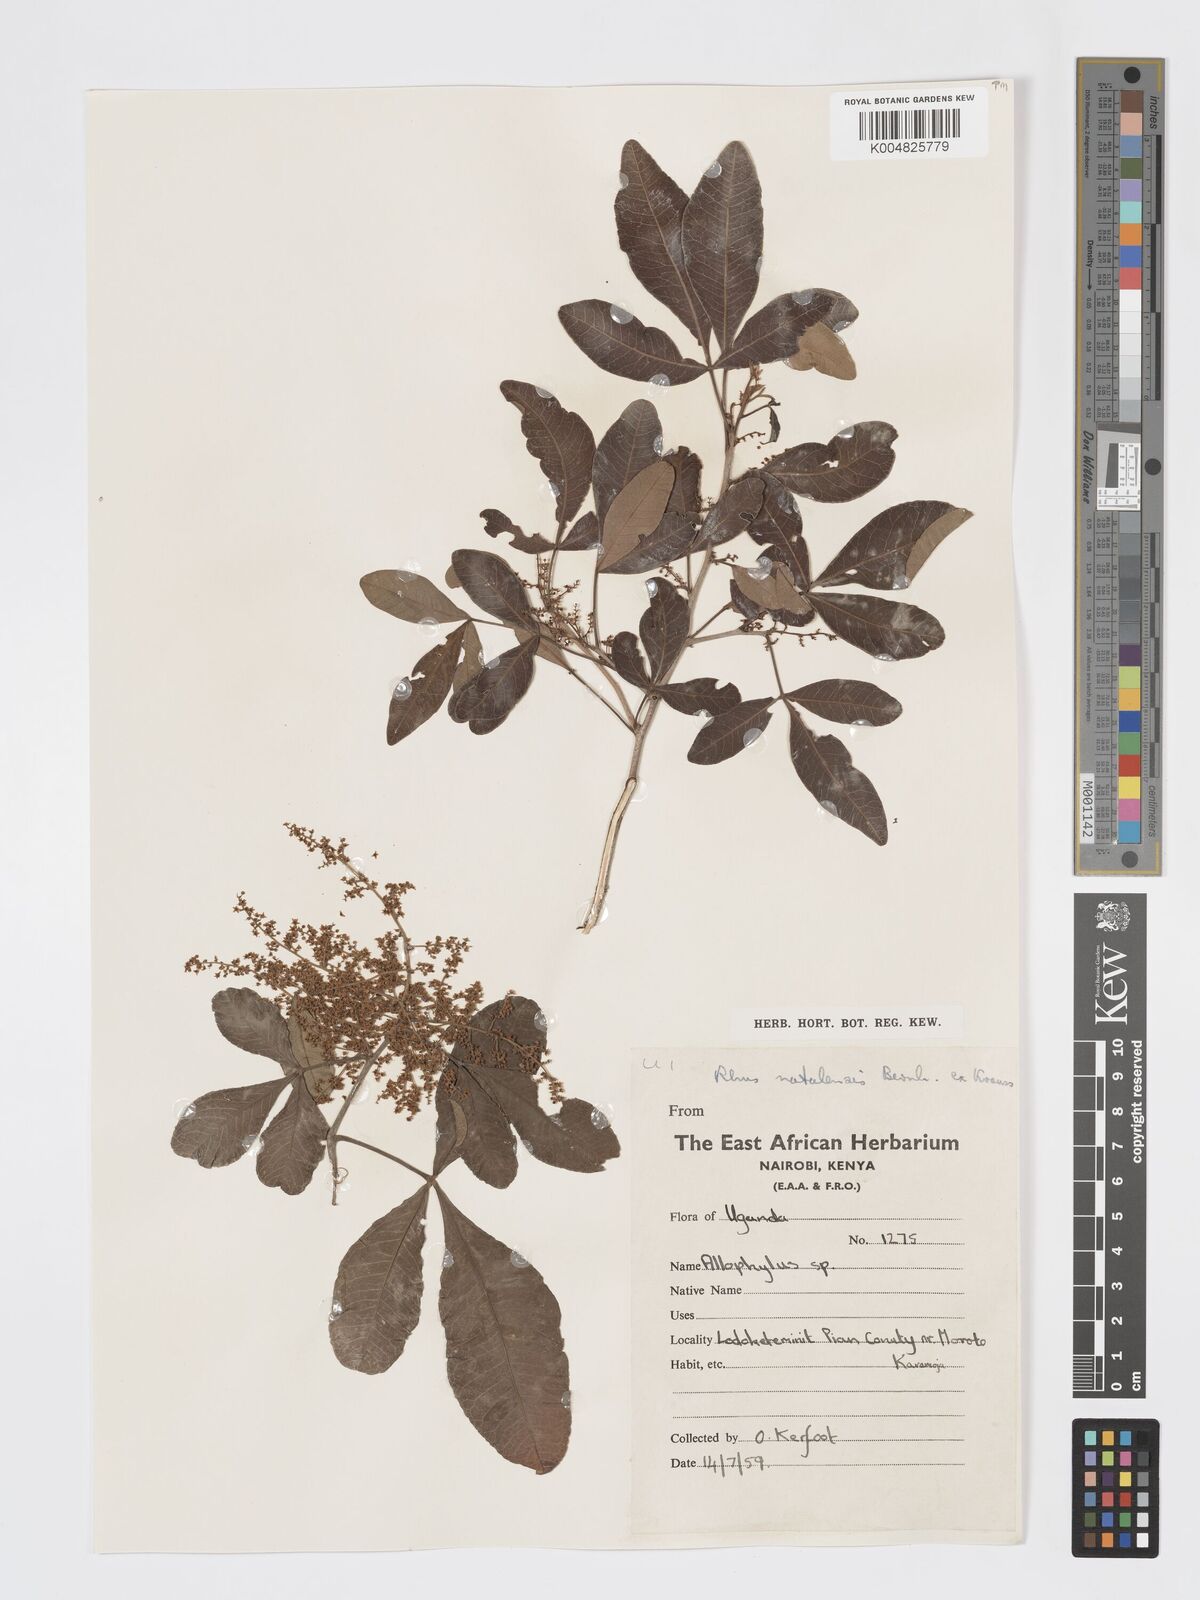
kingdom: Plantae
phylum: Tracheophyta
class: Magnoliopsida
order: Sapindales
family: Anacardiaceae
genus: Searsia
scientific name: Searsia natalensis
